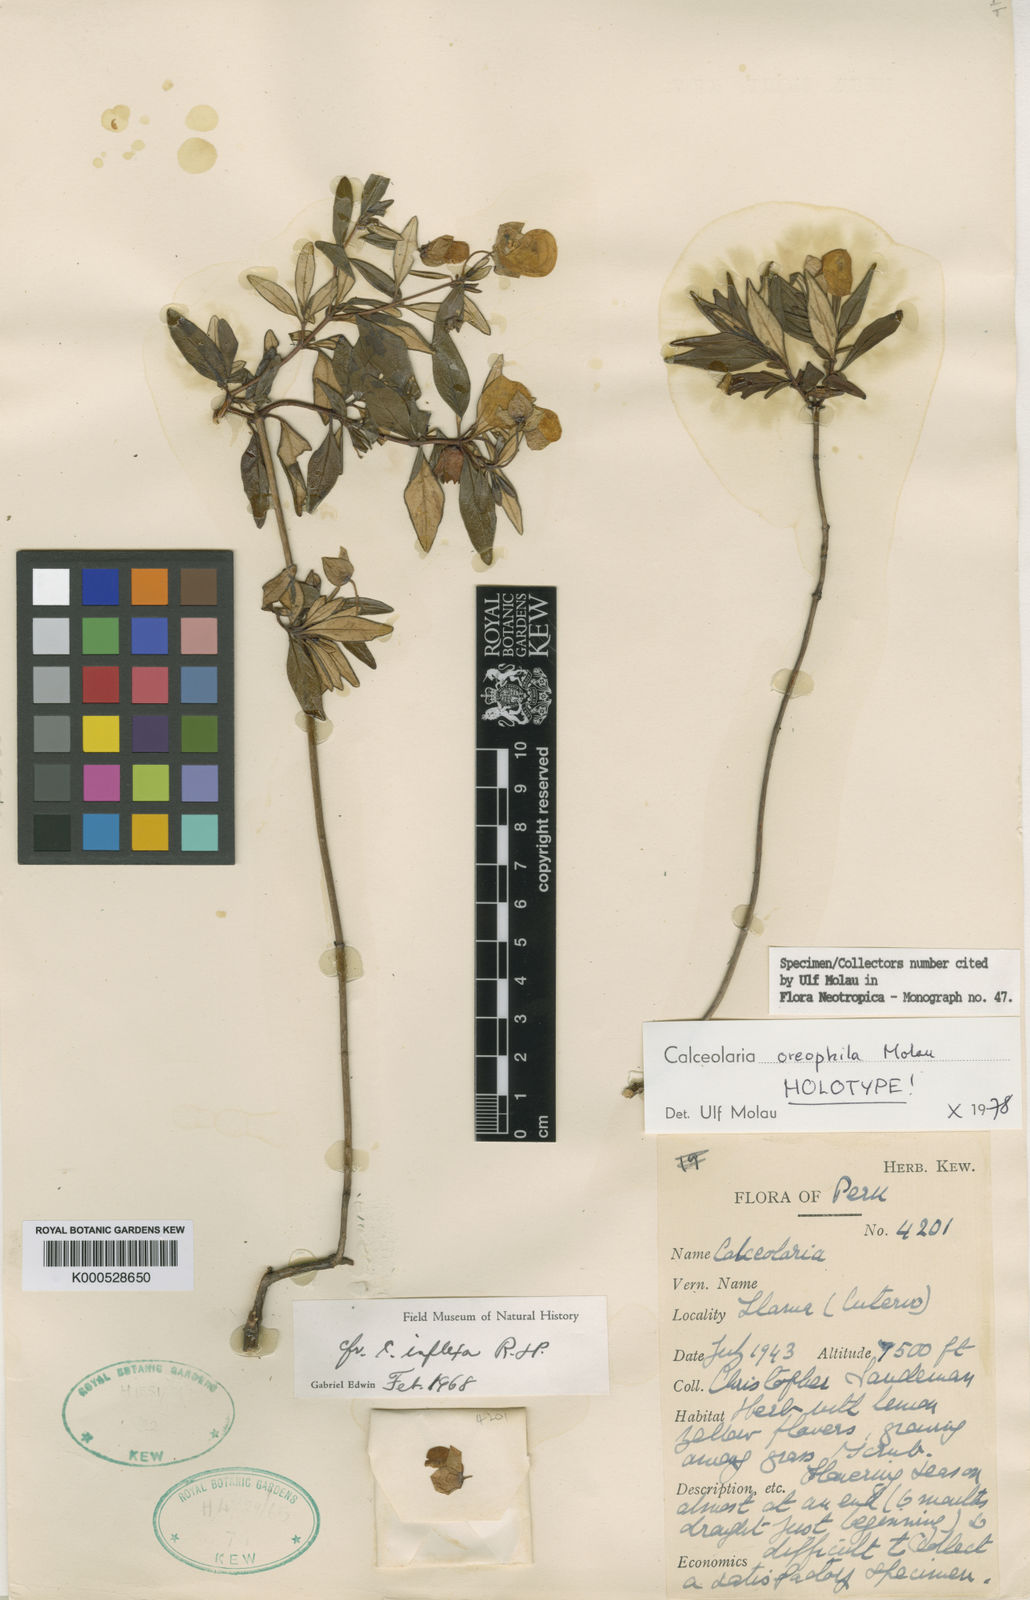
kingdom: Plantae
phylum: Tracheophyta
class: Magnoliopsida
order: Lamiales
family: Calceolariaceae
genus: Calceolaria
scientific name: Calceolaria oreophila
